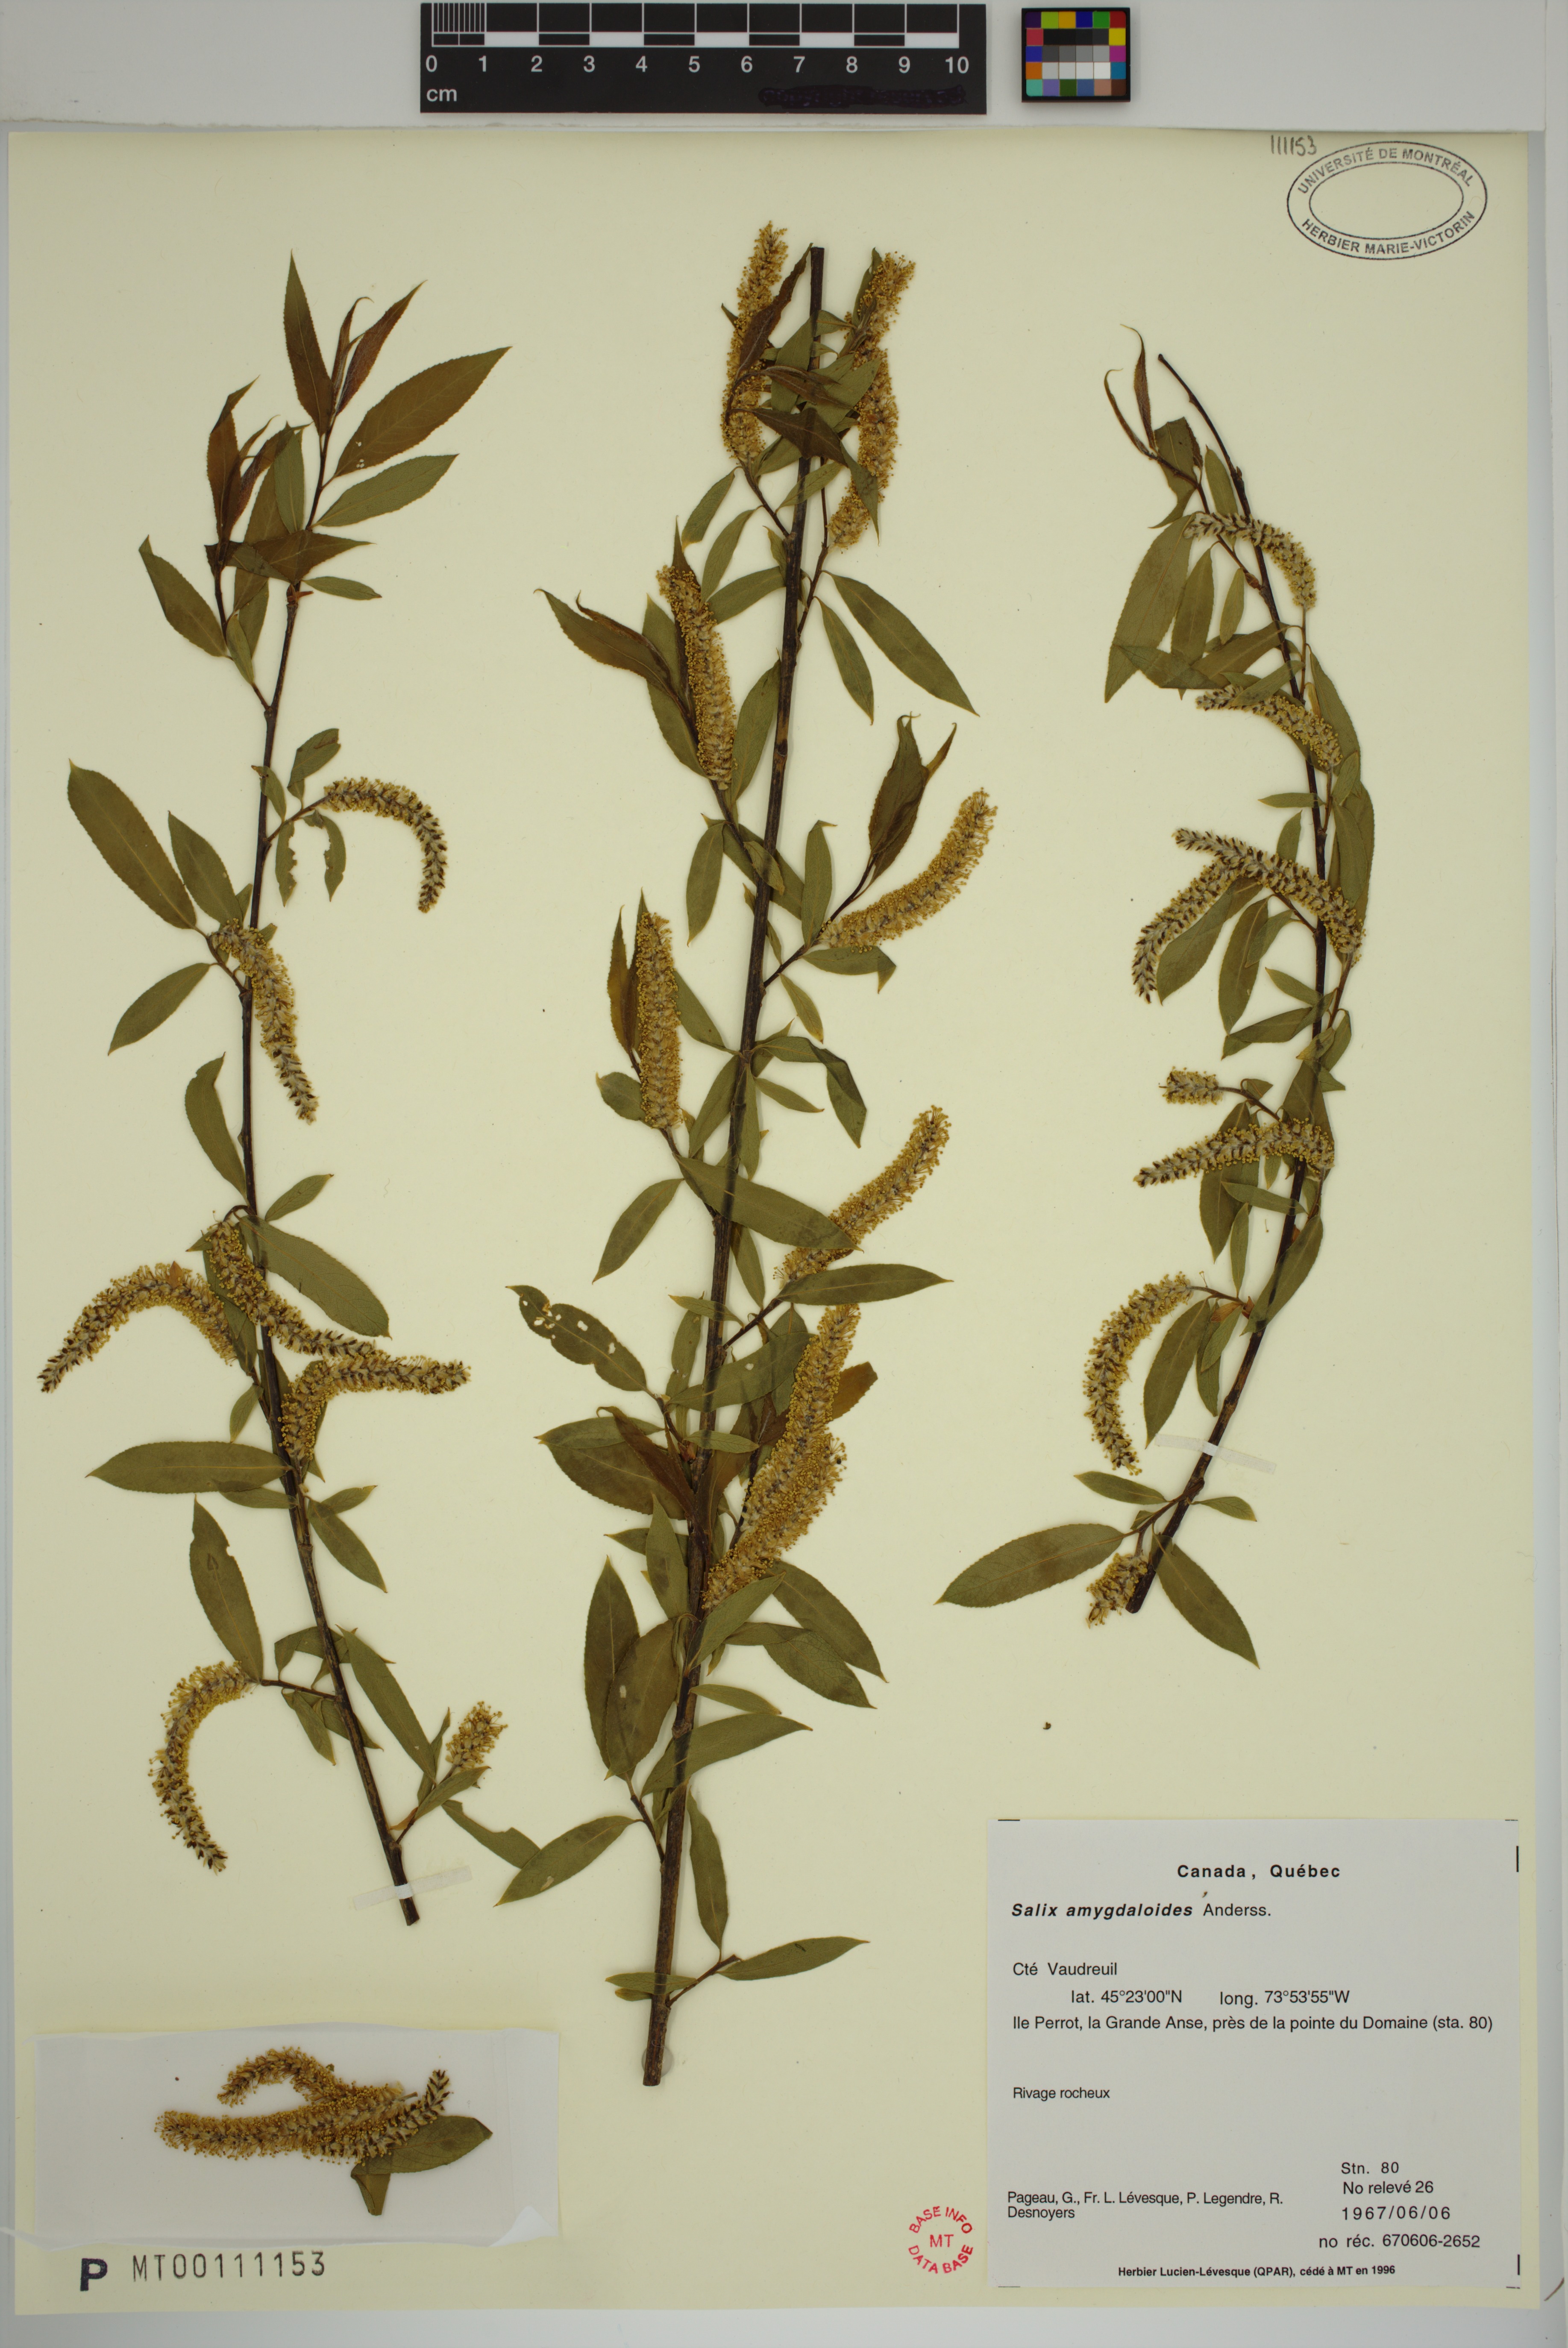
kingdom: Plantae
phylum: Tracheophyta
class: Magnoliopsida
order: Malpighiales
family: Salicaceae
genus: Salix
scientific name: Salix amygdaloides
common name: Peach leaf willow
